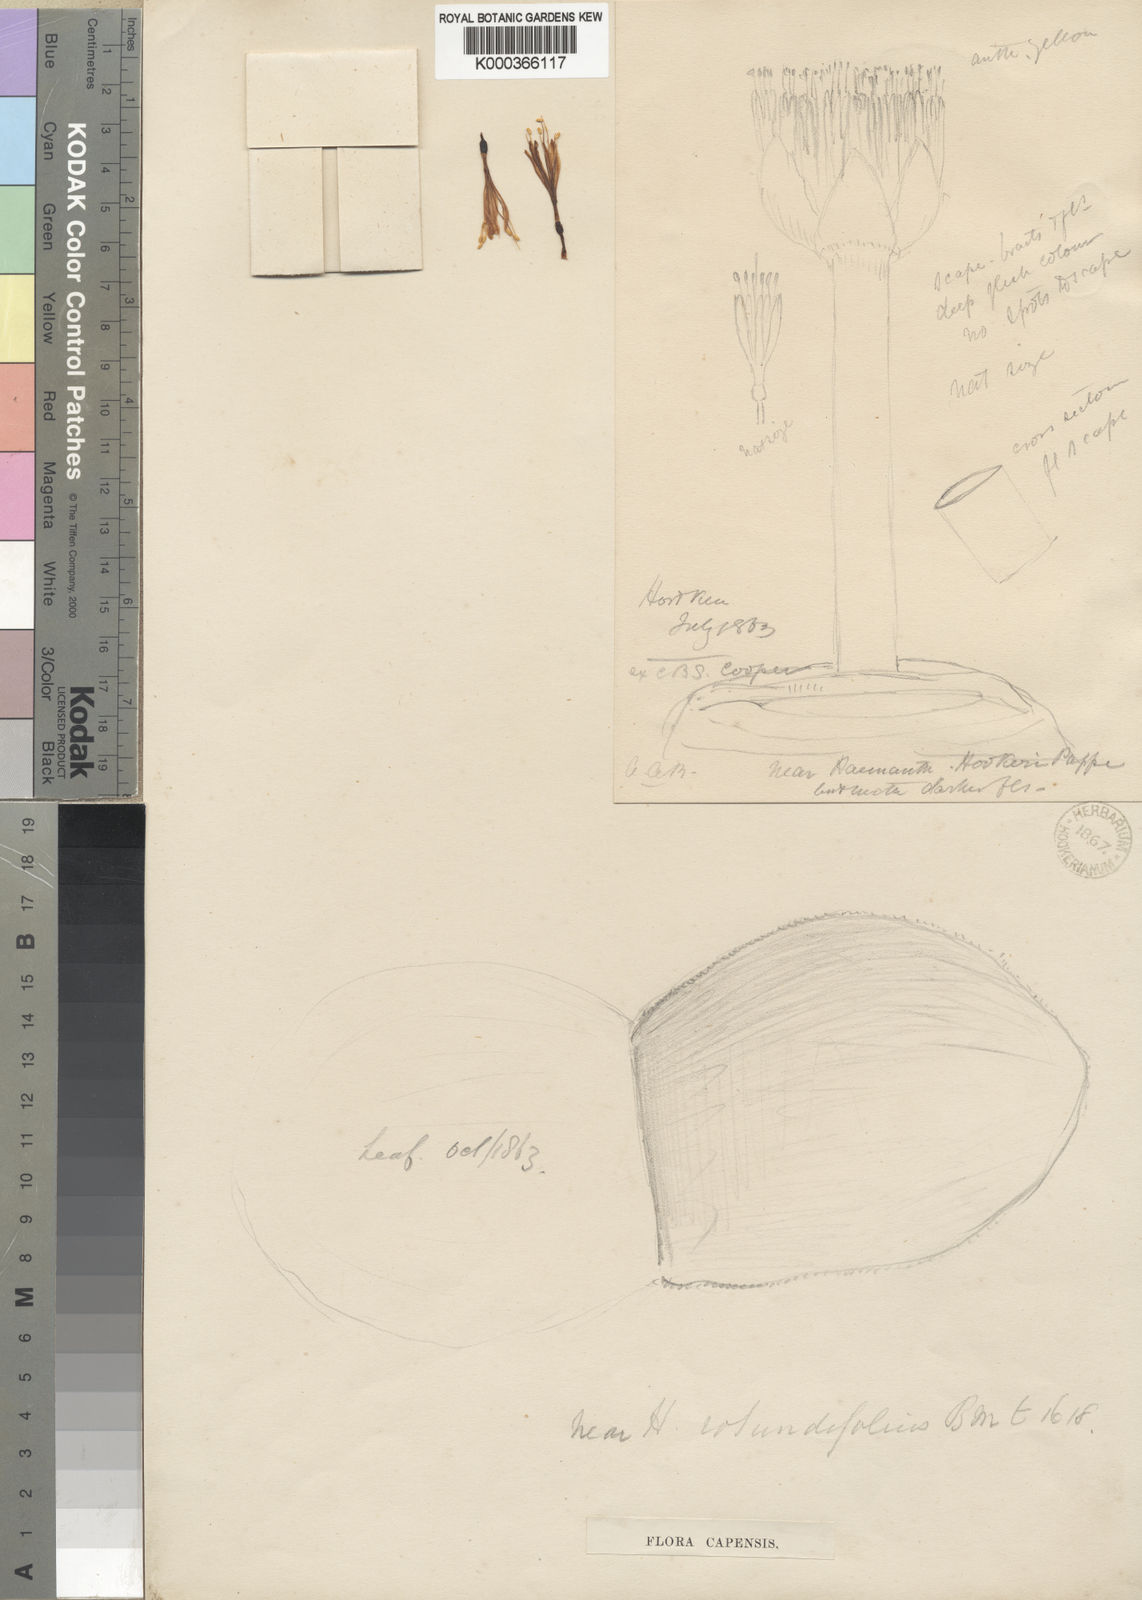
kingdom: Plantae
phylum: Tracheophyta
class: Liliopsida
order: Asparagales
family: Amaryllidaceae
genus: Haemanthus
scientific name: Haemanthus sanguineus
